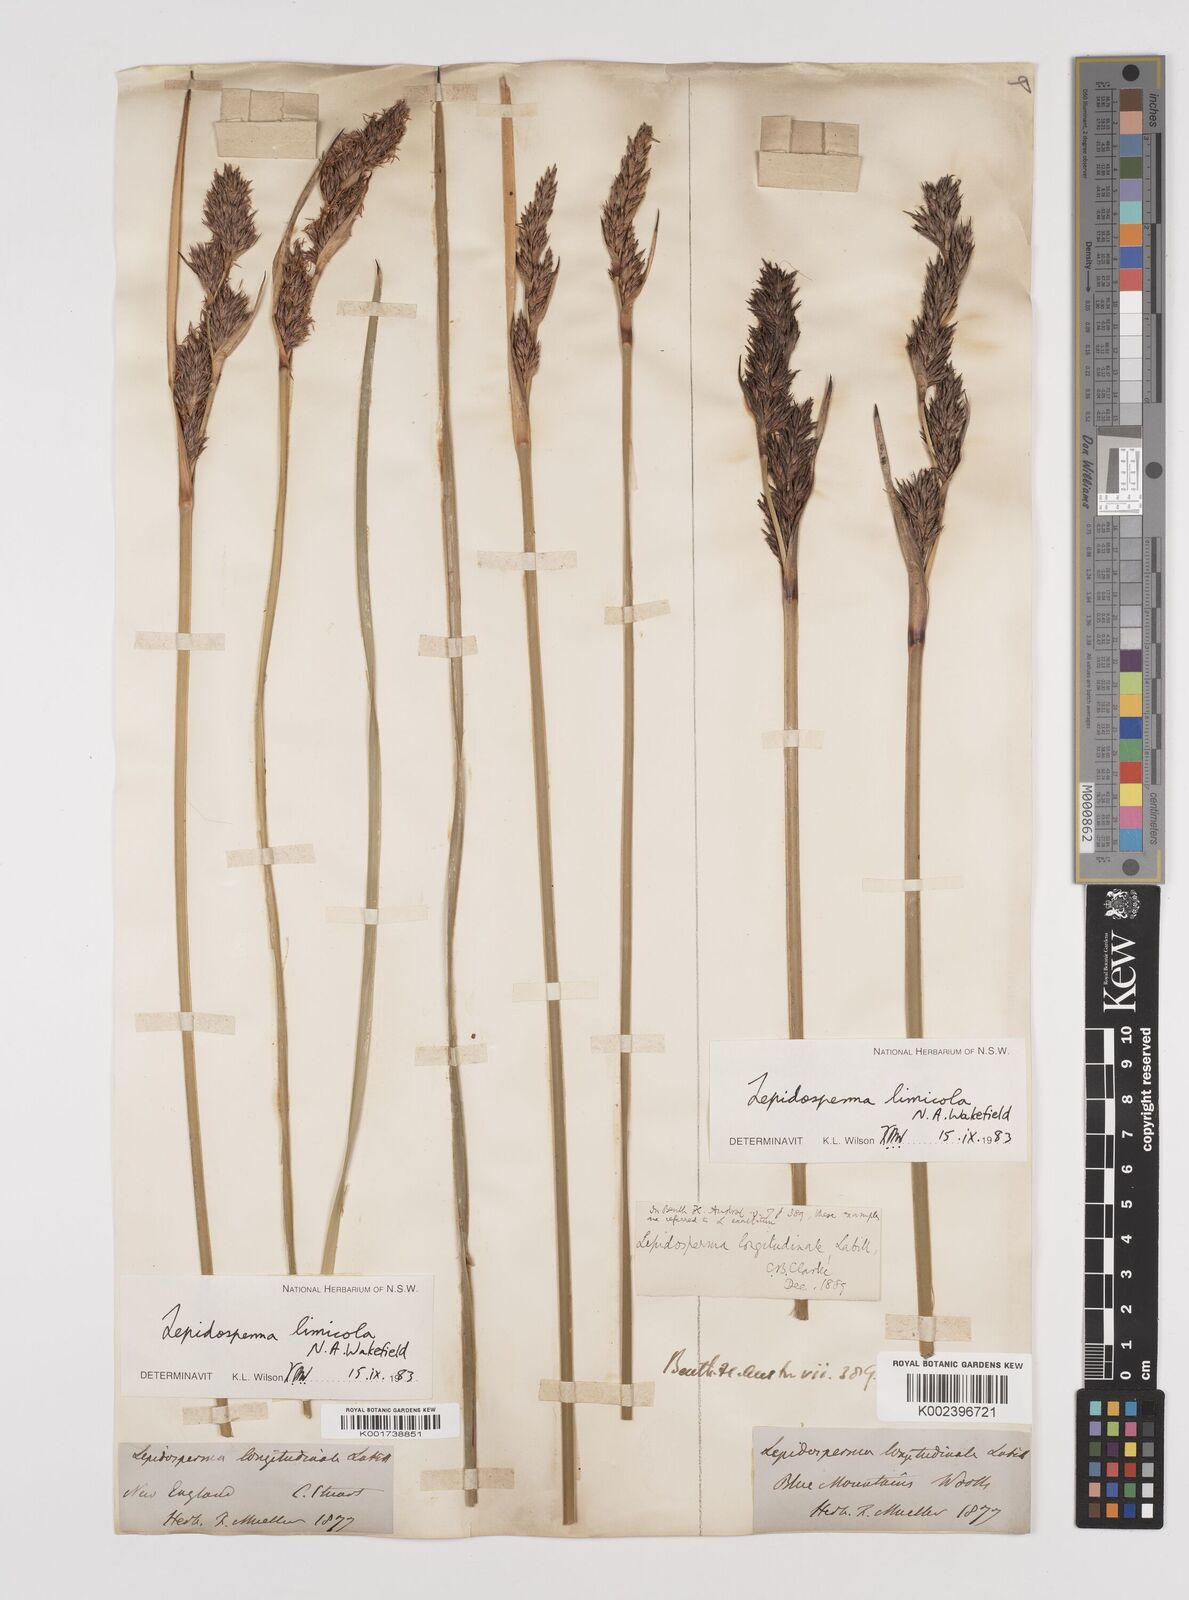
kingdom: Plantae
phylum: Tracheophyta
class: Liliopsida
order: Poales
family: Cyperaceae
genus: Lepidosperma
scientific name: Lepidosperma limicola
